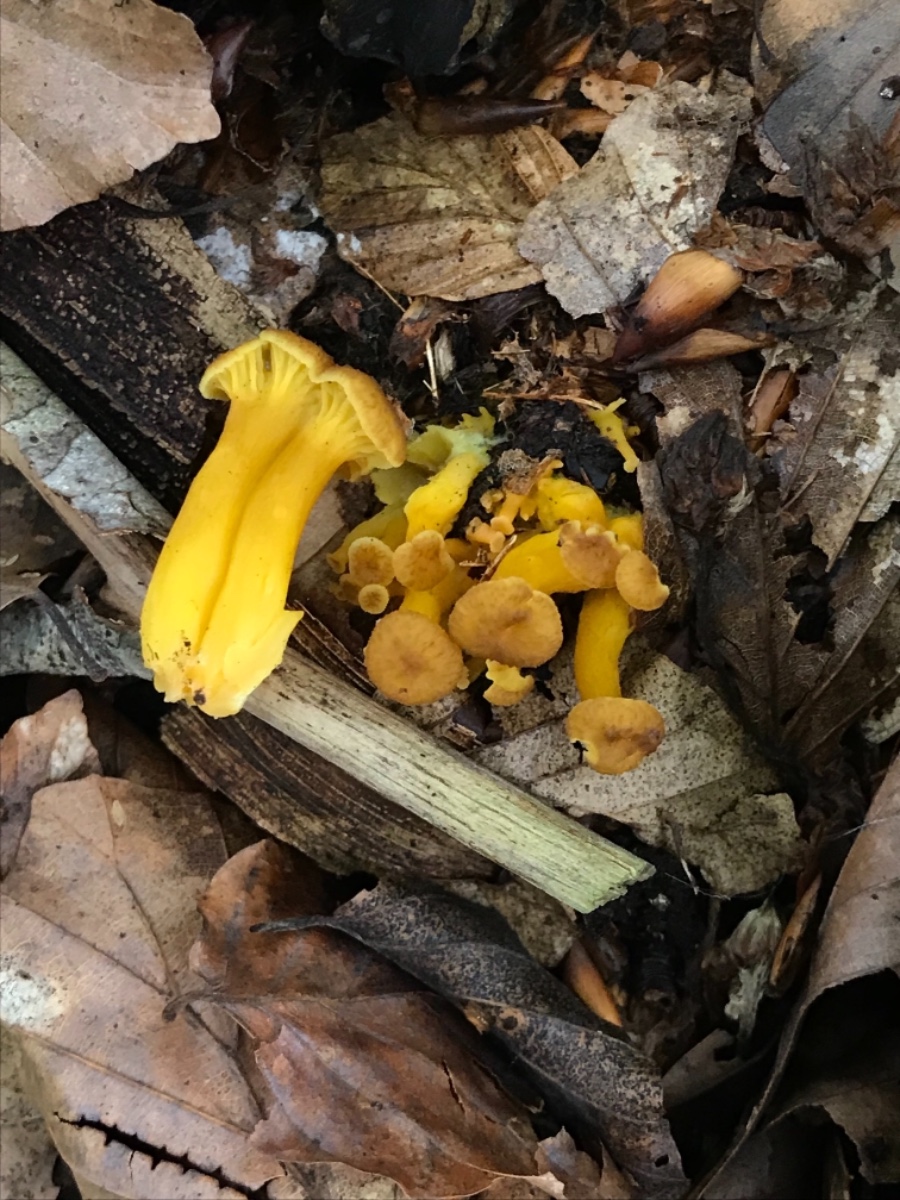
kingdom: Fungi
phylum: Basidiomycota
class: Agaricomycetes
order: Cantharellales
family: Hydnaceae
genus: Craterellus
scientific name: Craterellus tubaeformis
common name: tragt-kantarel
